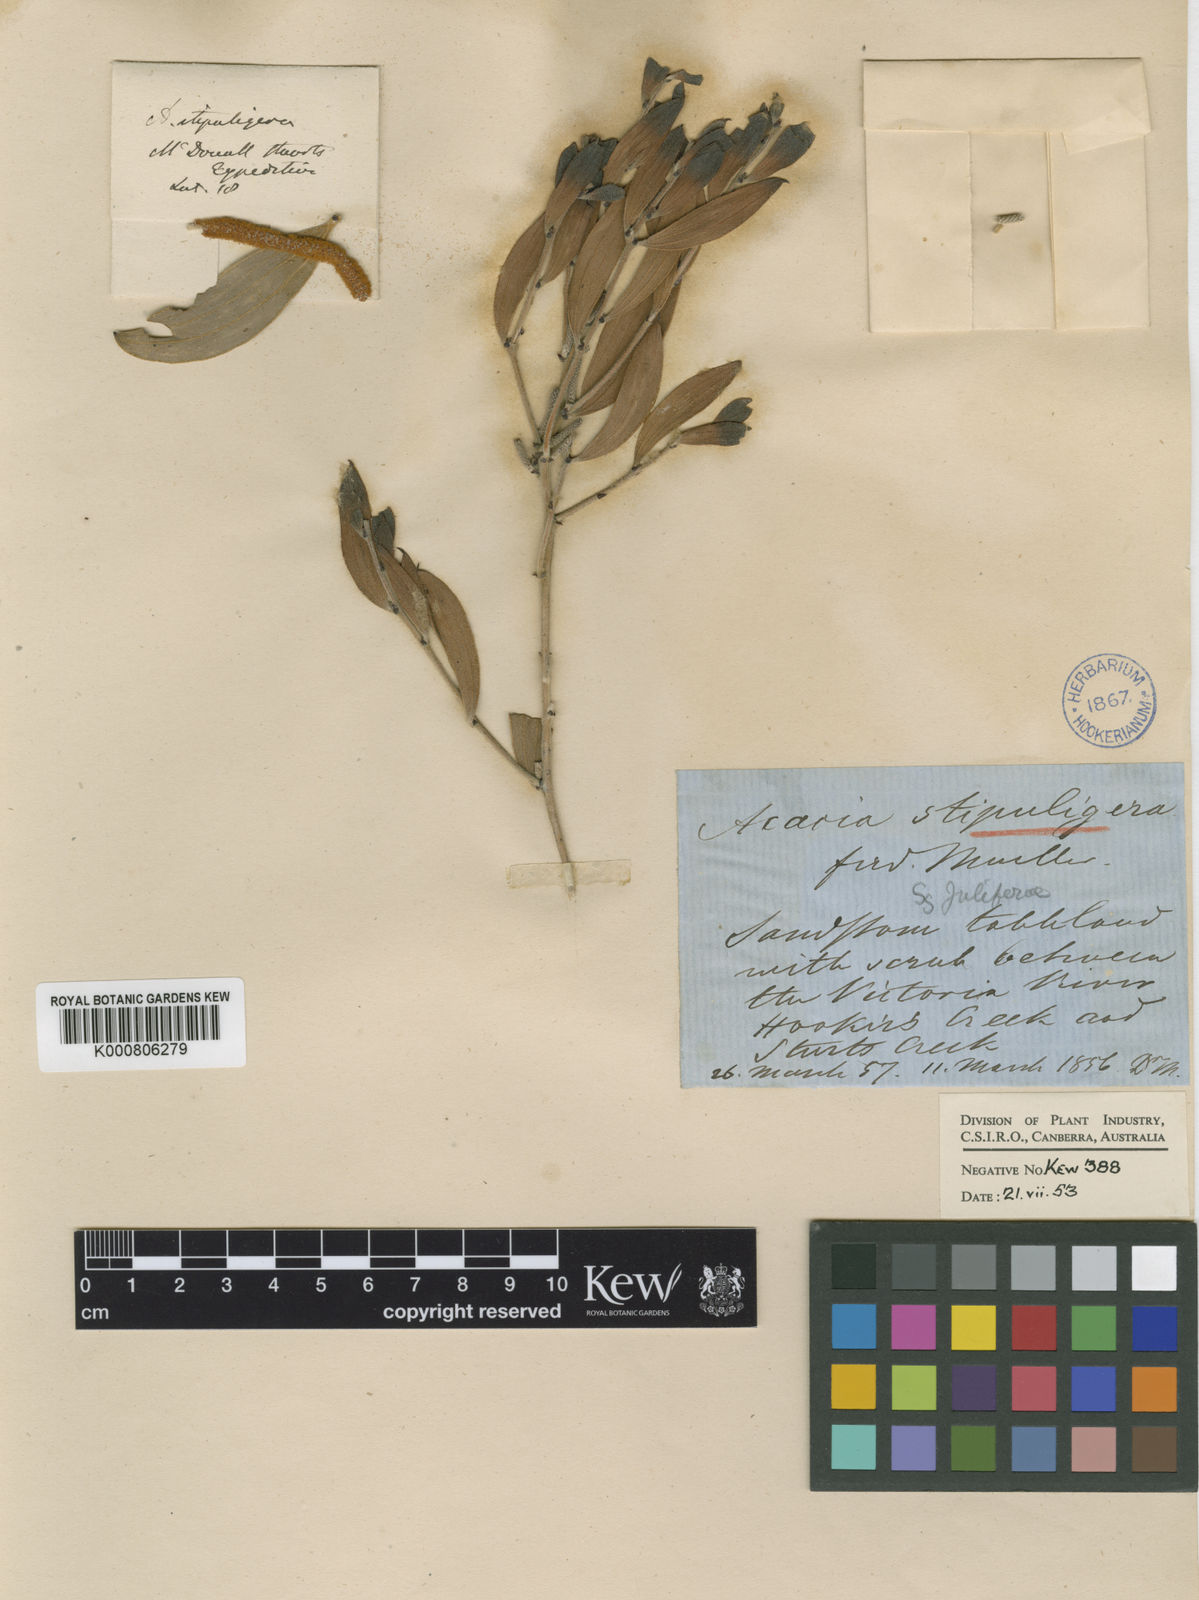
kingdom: Plantae
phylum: Tracheophyta
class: Magnoliopsida
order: Fabales
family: Fabaceae
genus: Acacia
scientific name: Acacia stipuligera
